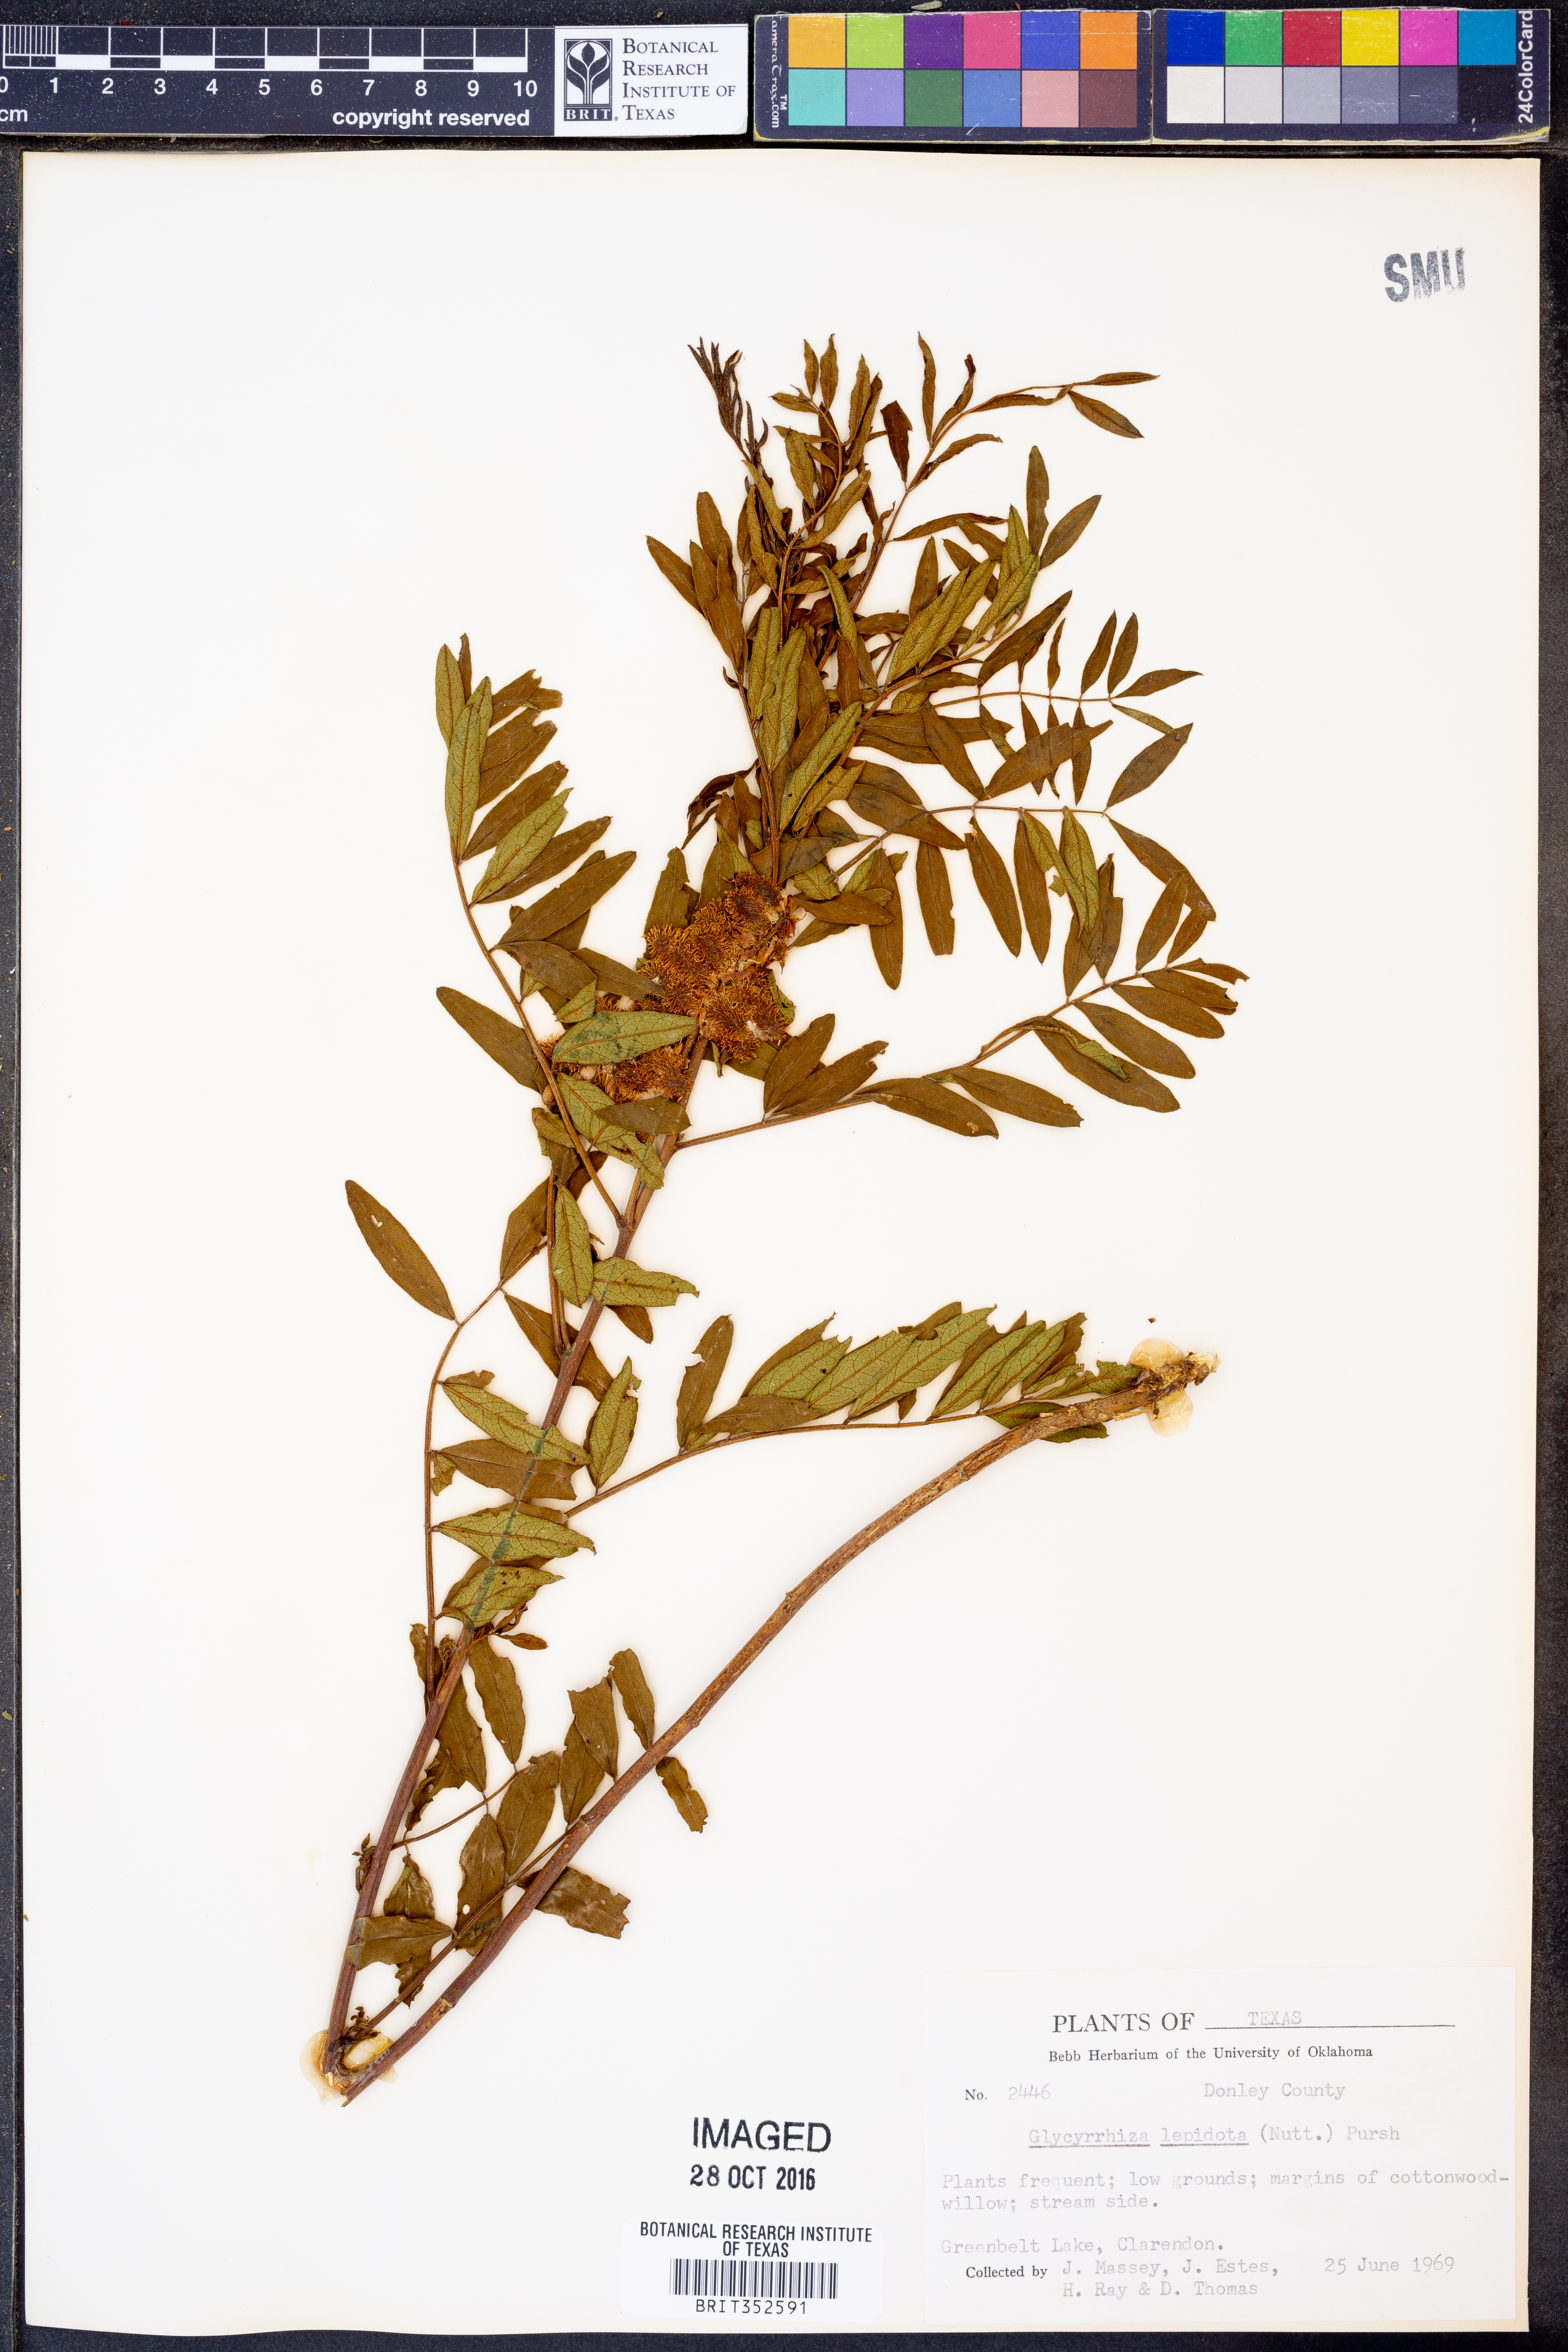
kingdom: Plantae
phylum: Tracheophyta
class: Magnoliopsida
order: Fabales
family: Fabaceae
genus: Glycyrrhiza
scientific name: Glycyrrhiza lepidota
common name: American liquorice
